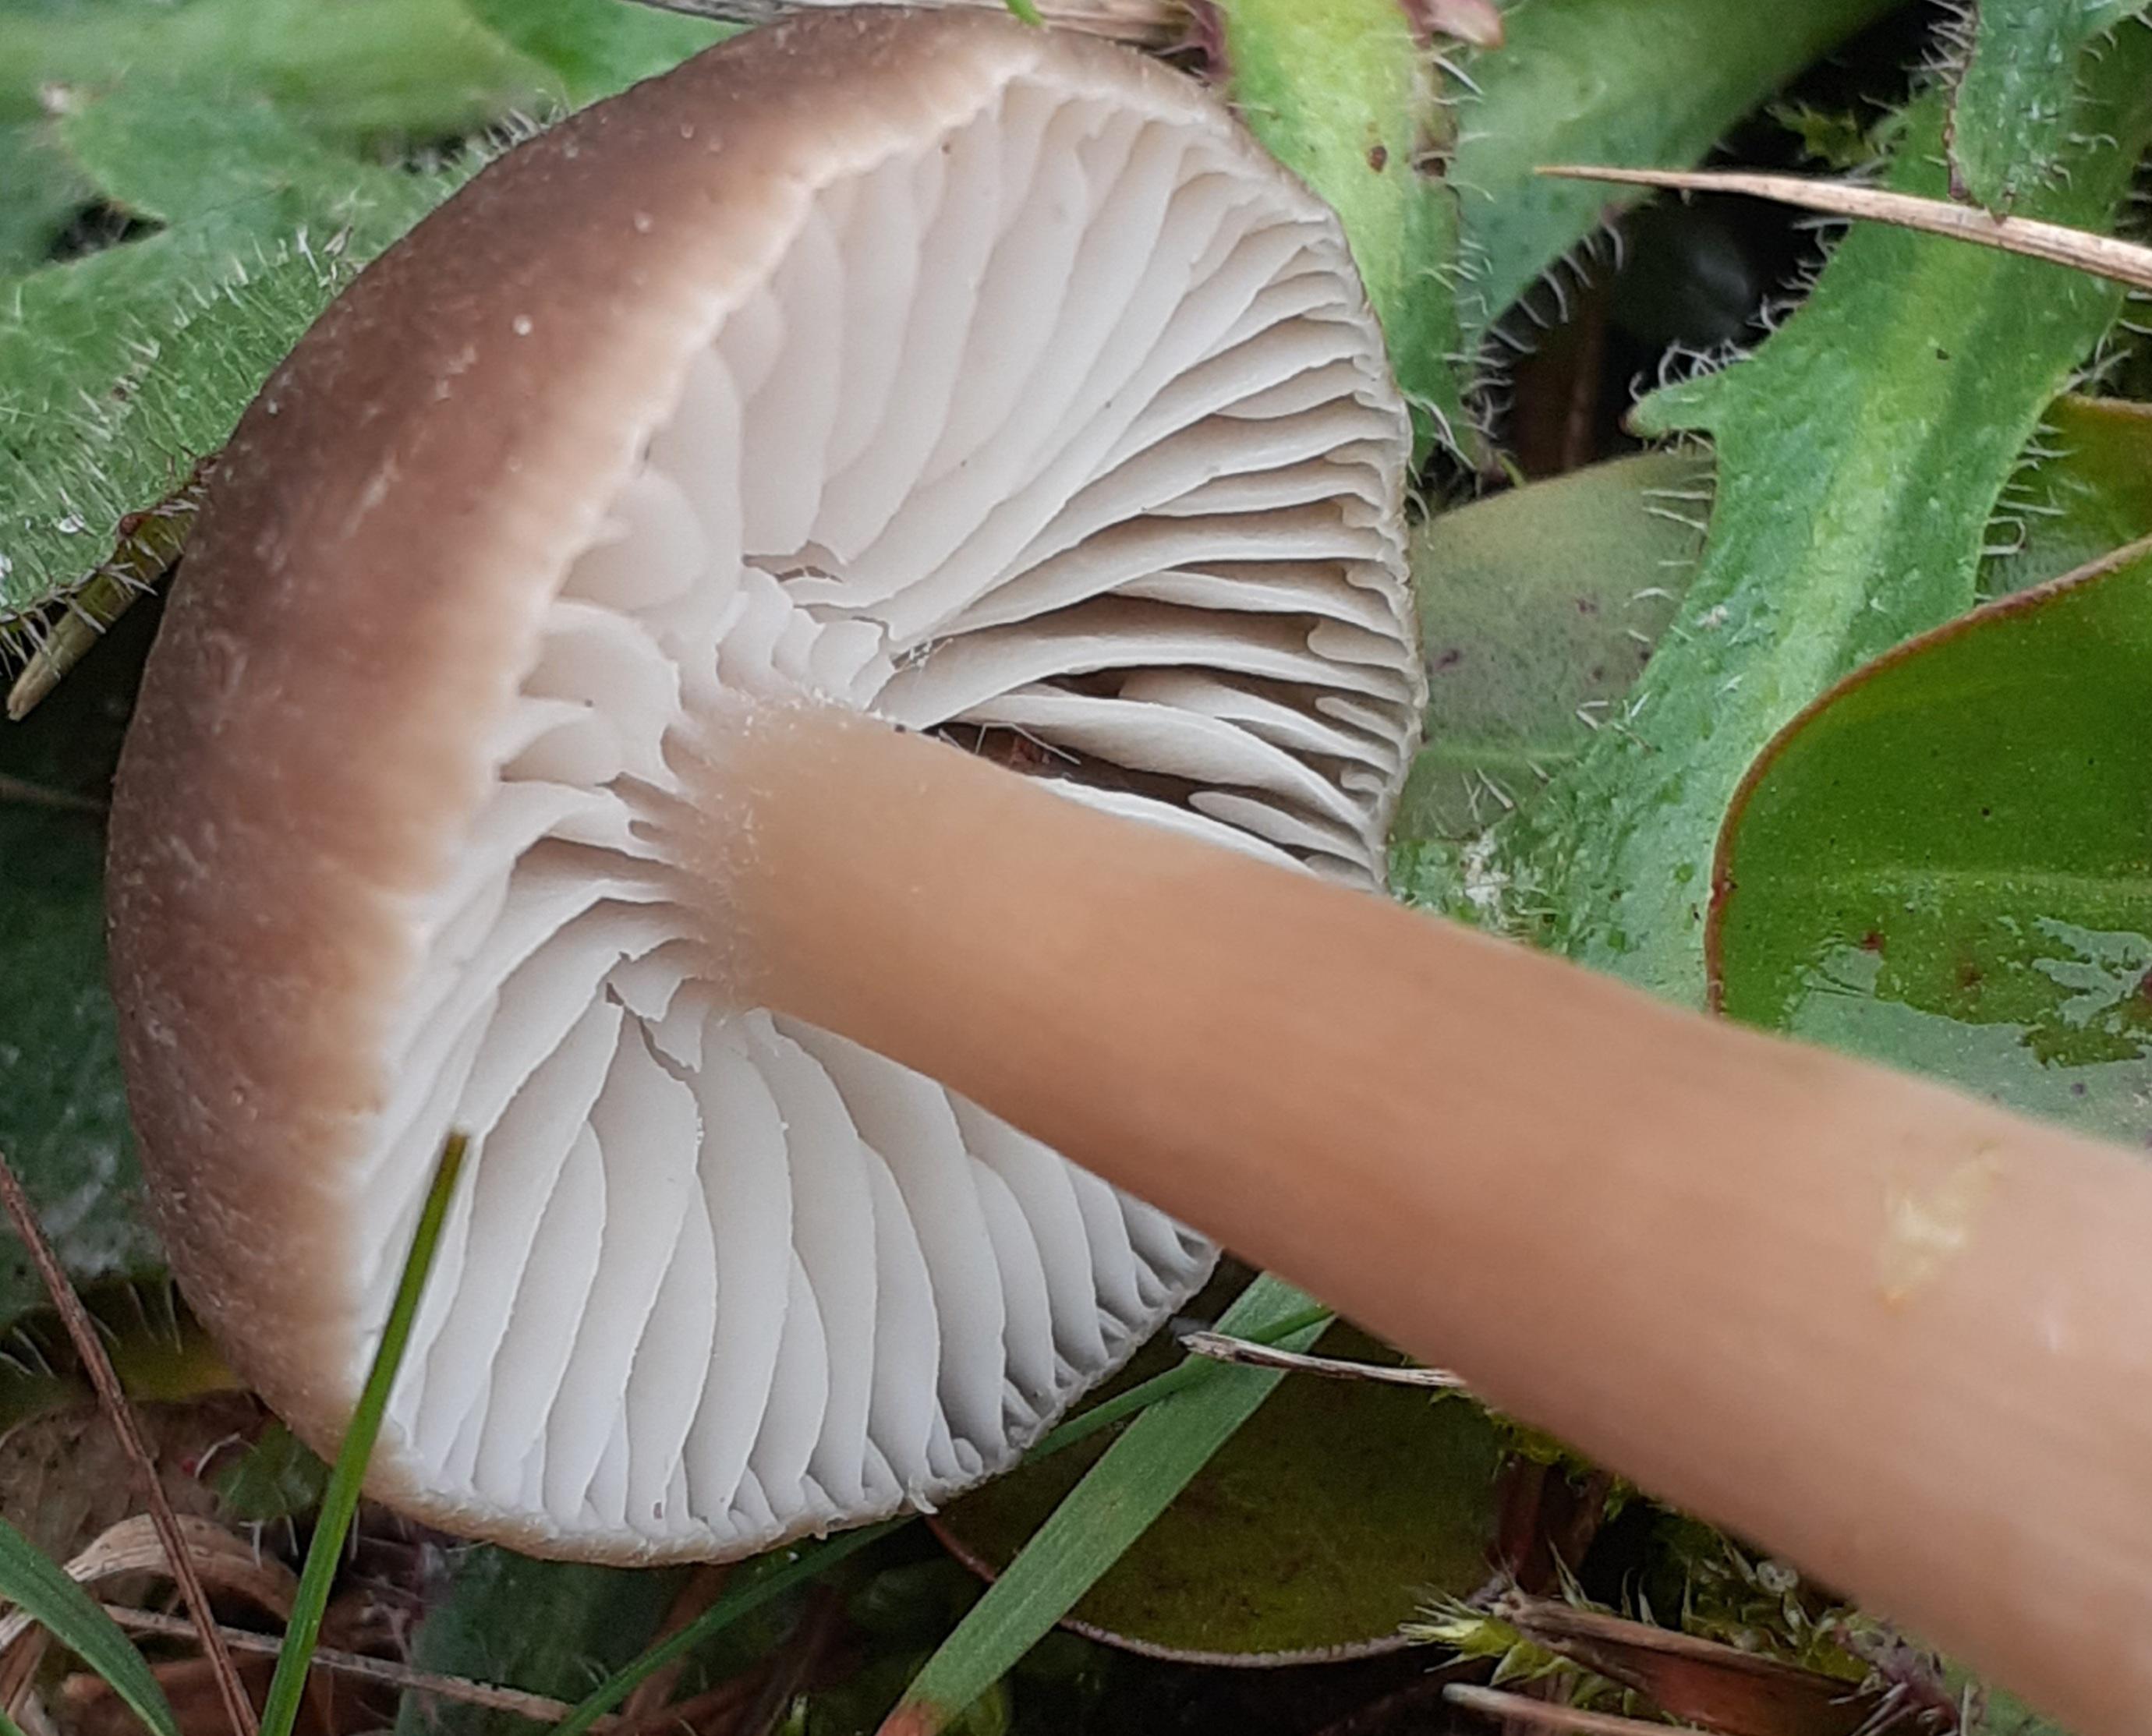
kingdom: Fungi
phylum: Basidiomycota
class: Agaricomycetes
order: Agaricales
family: Hygrophoraceae
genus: Neohygrocybe
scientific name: Neohygrocybe nitrata
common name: stinkende vokshat
